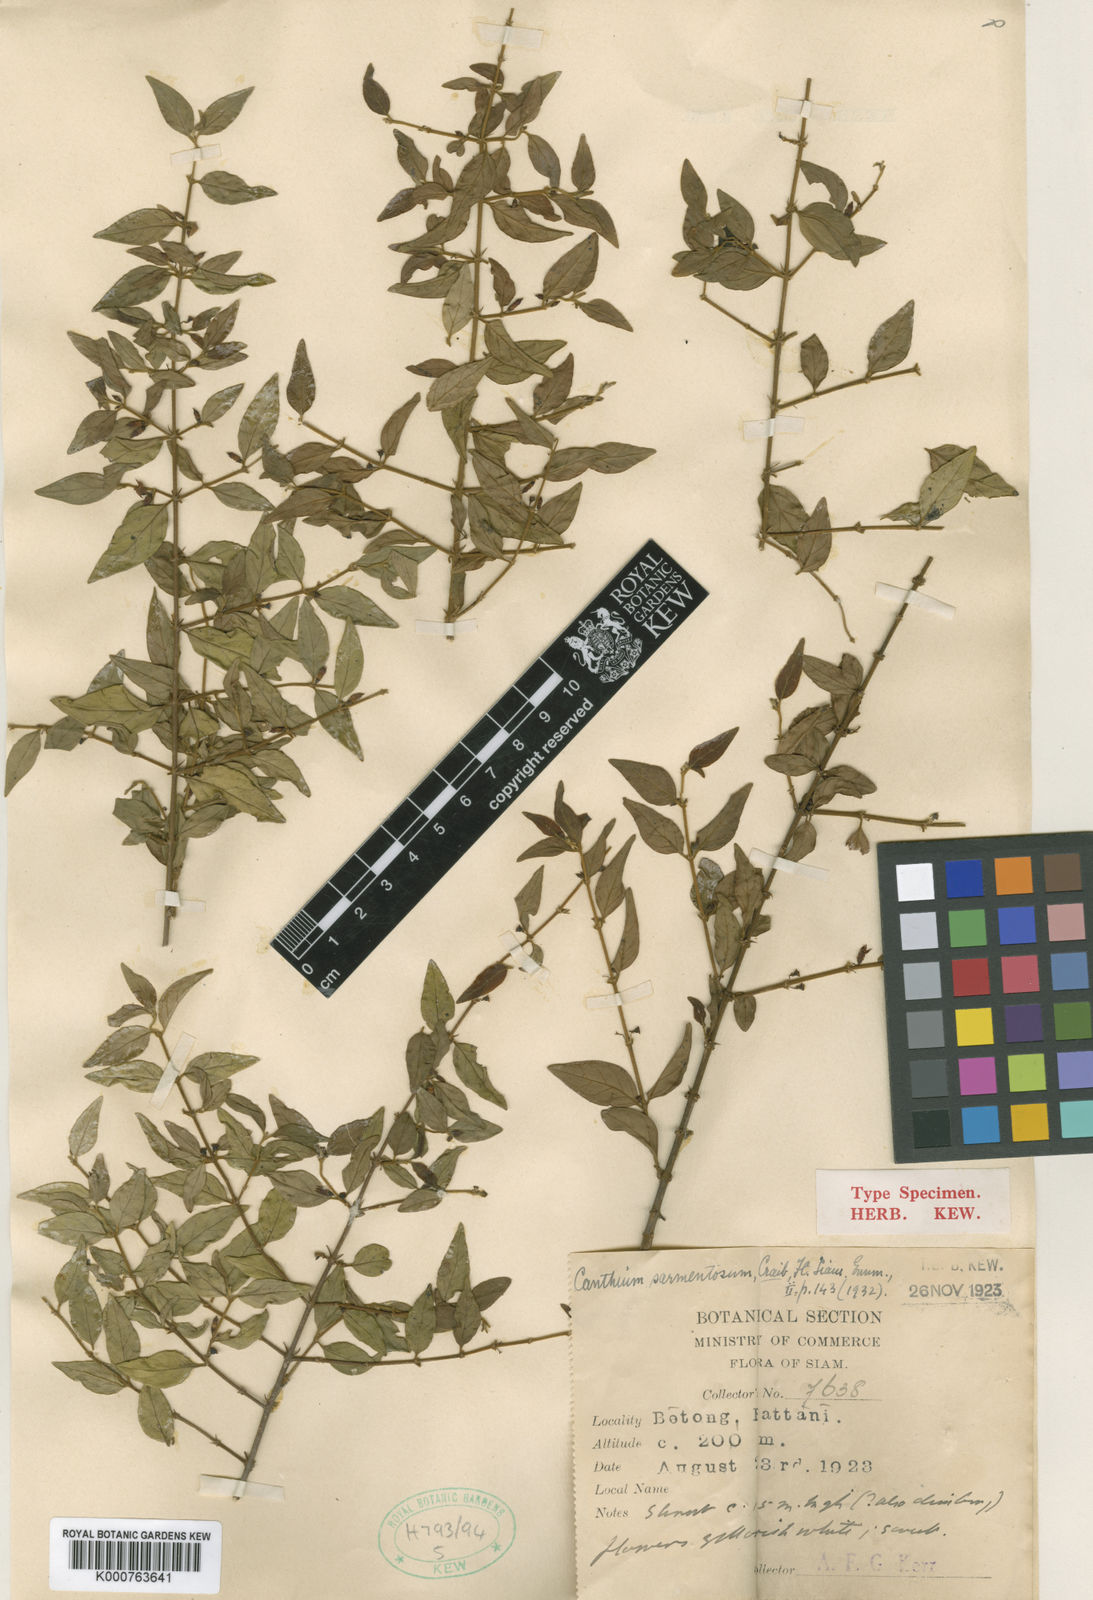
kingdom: Plantae
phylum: Tracheophyta
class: Magnoliopsida
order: Gentianales
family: Rubiaceae
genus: Canthium
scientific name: Canthium sarmentosum
